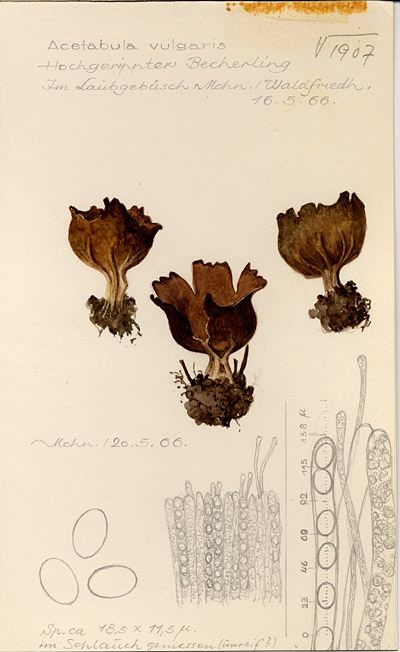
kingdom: Fungi
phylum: Ascomycota
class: Pezizomycetes
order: Pezizales
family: Helvellaceae
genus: Helvella
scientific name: Helvella acetabulum
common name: Vinegar cup
